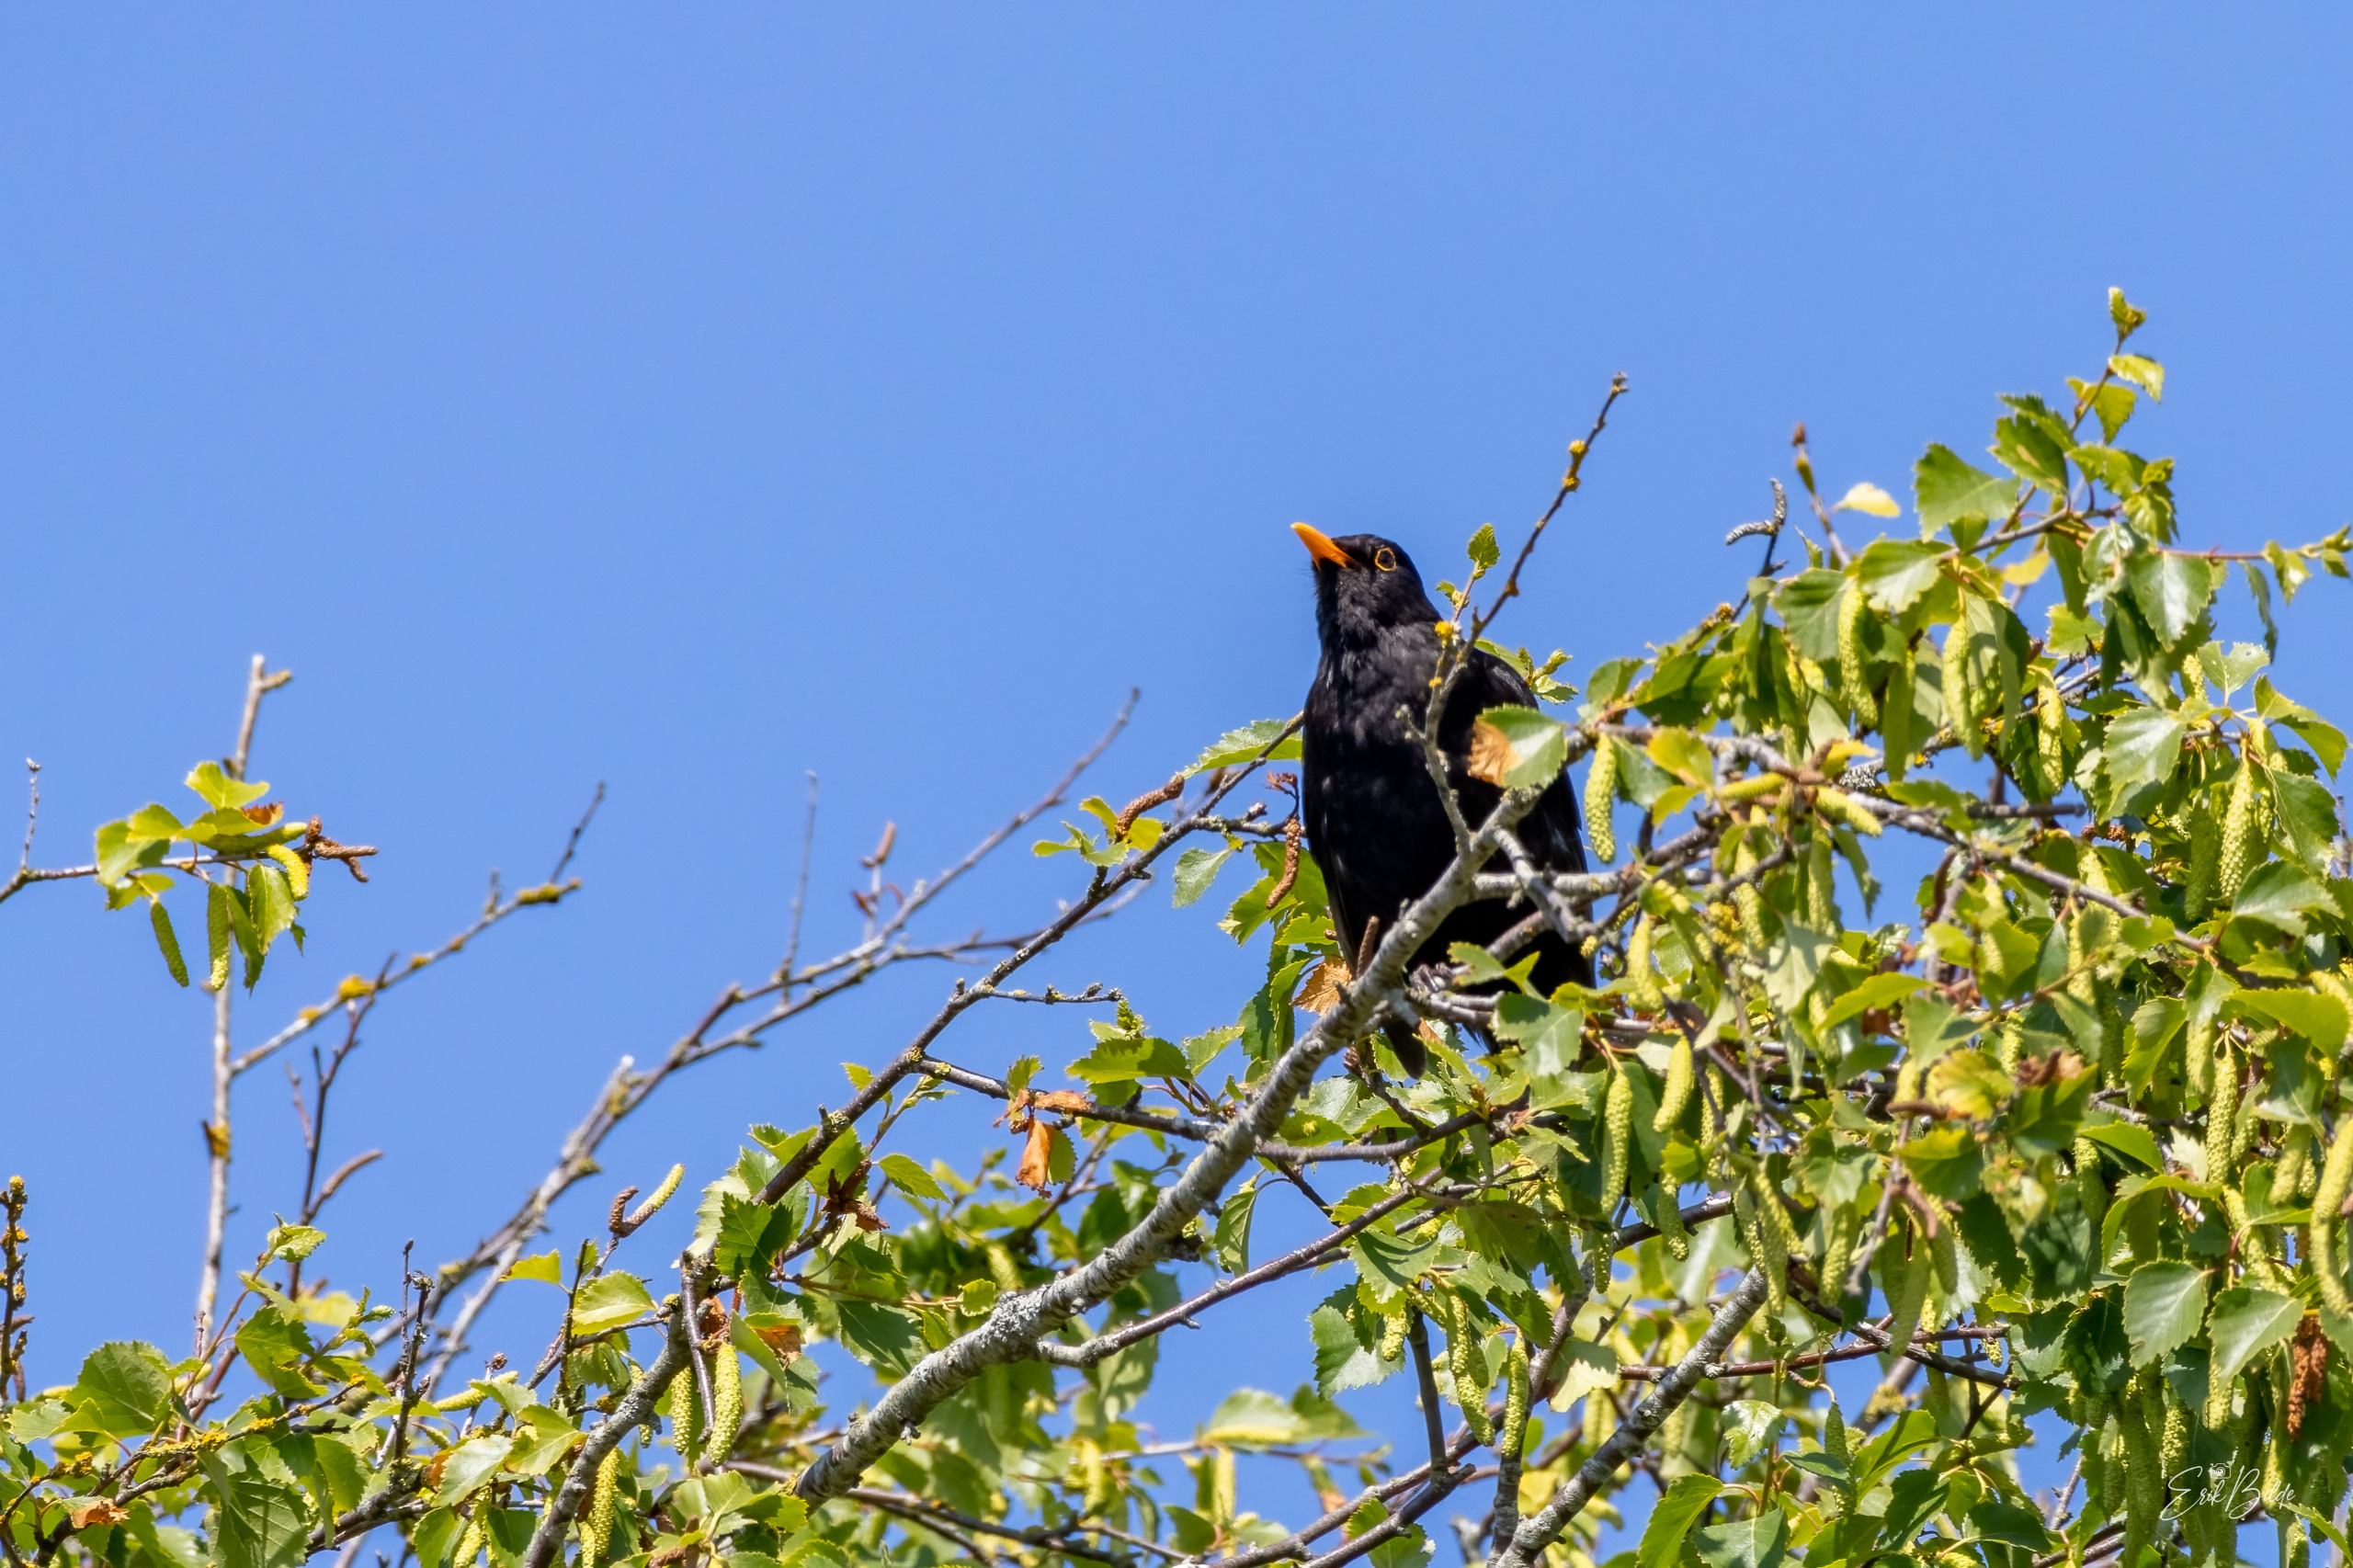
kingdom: Animalia
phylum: Chordata
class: Aves
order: Passeriformes
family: Turdidae
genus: Turdus
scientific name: Turdus merula
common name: Solsort
